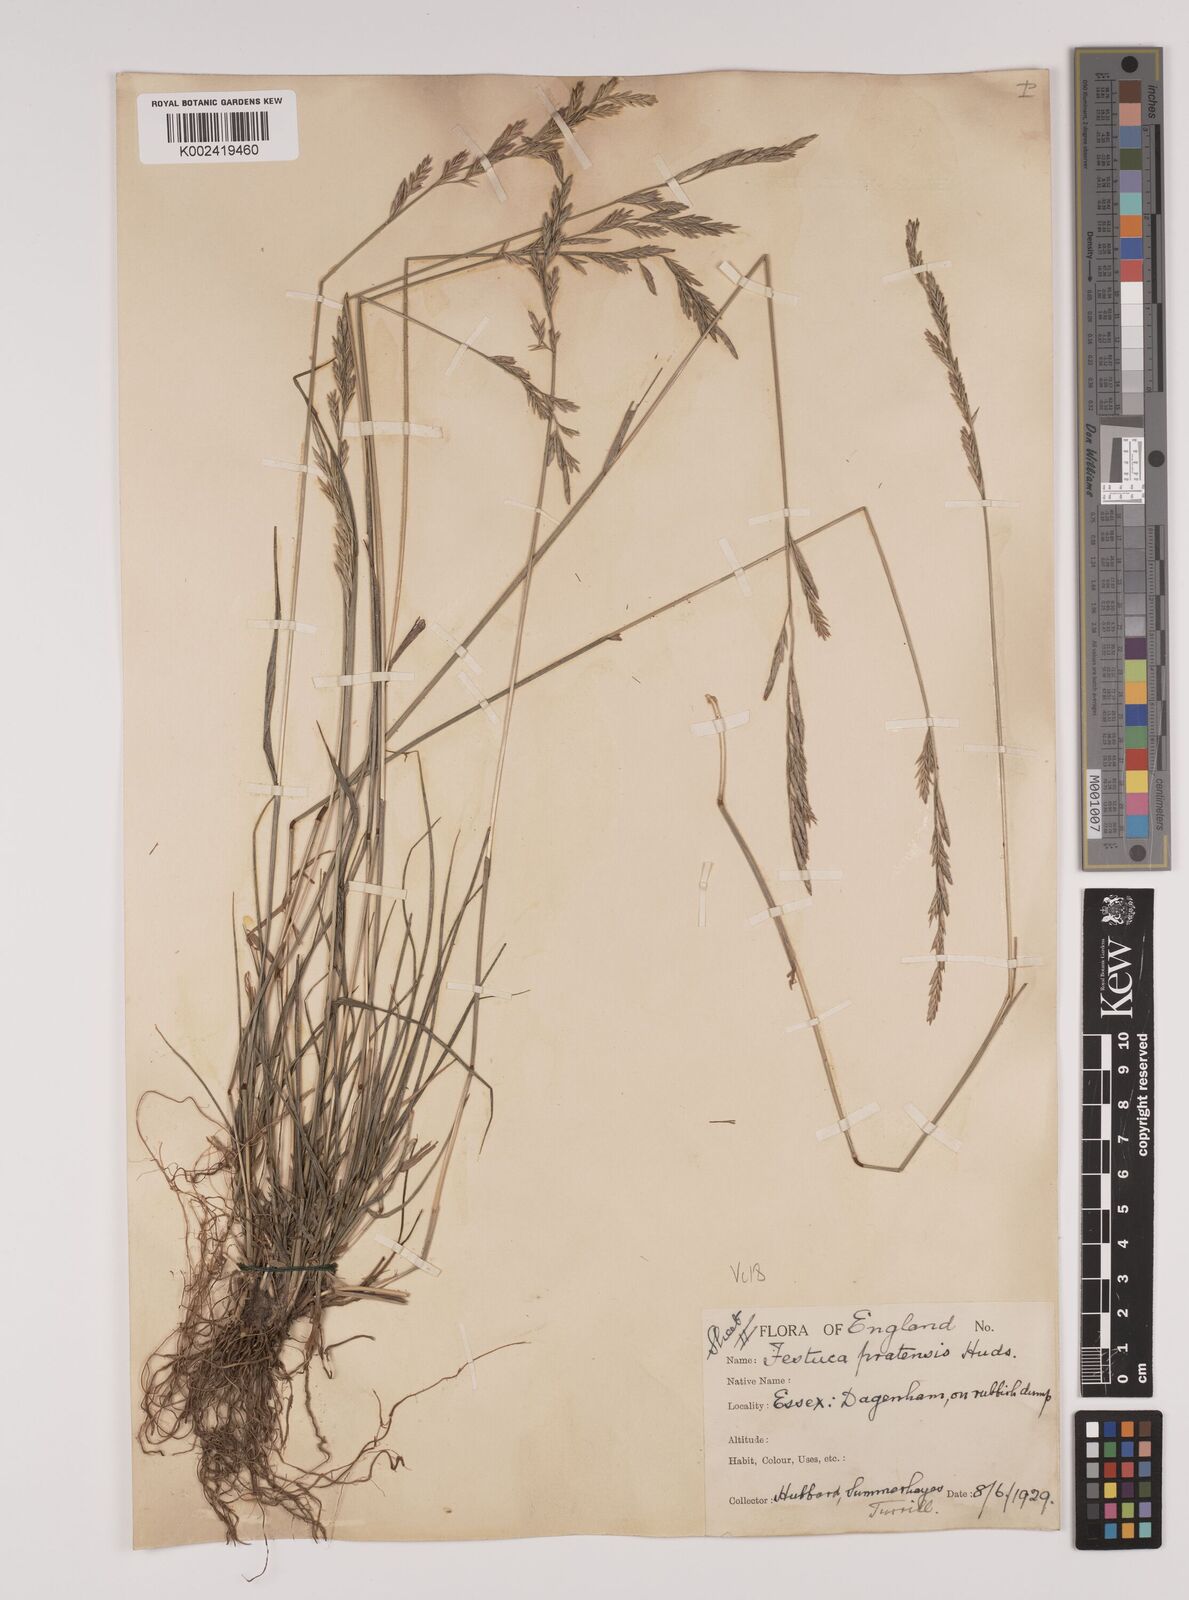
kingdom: Plantae
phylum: Tracheophyta
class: Liliopsida
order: Poales
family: Poaceae
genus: Lolium
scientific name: Lolium pratense
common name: Dover grass
